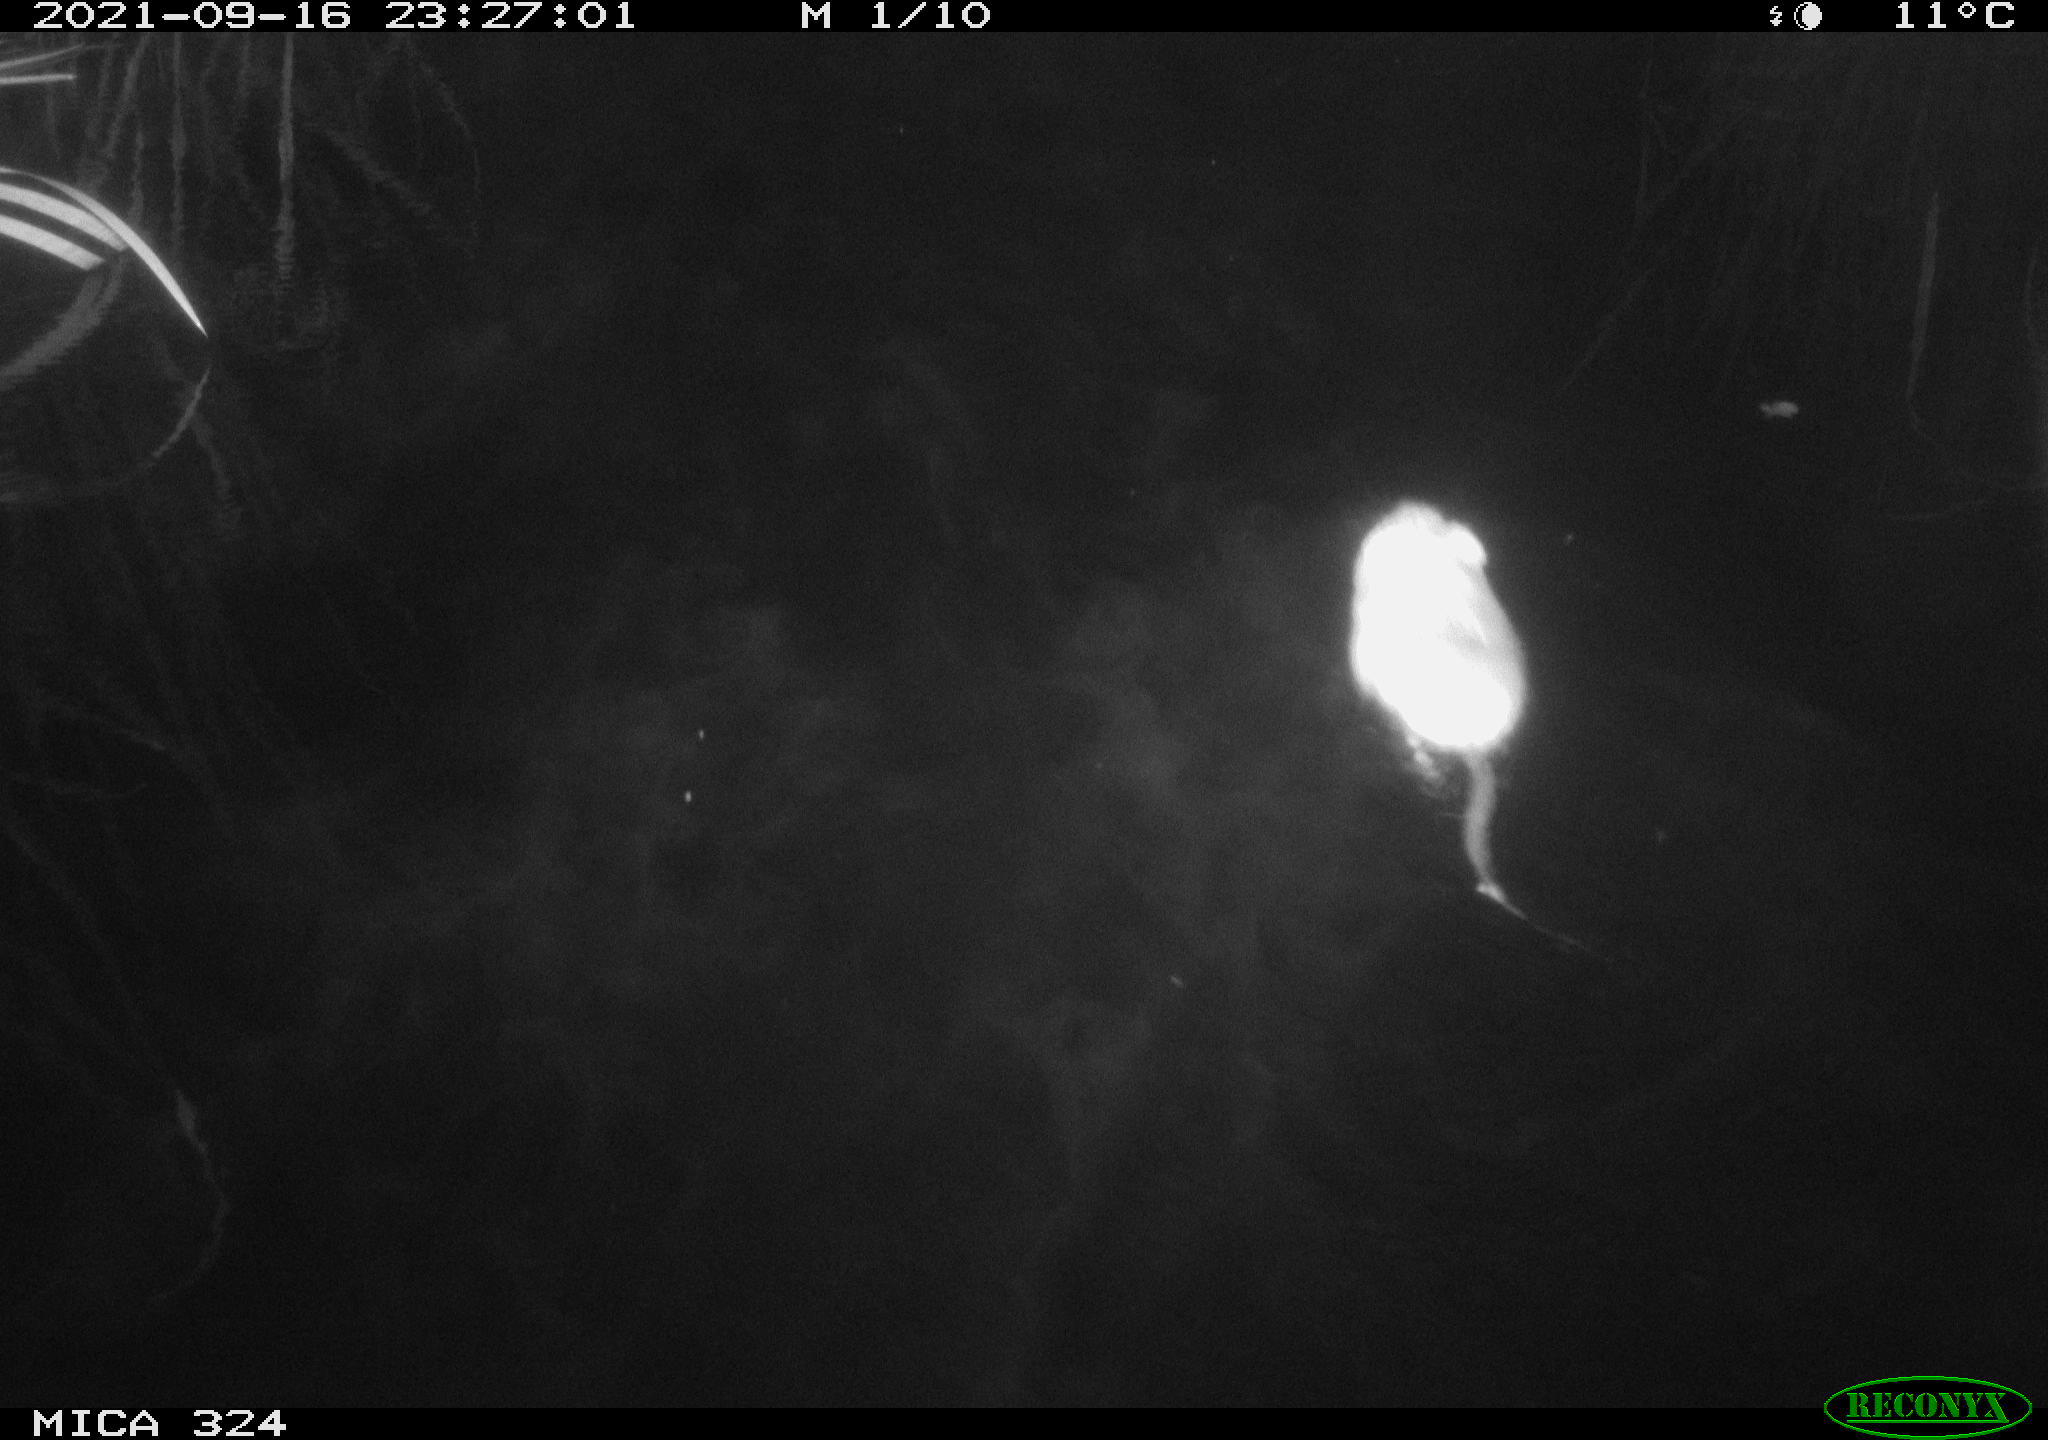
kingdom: Animalia
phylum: Chordata
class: Mammalia
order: Rodentia
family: Cricetidae
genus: Ondatra
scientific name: Ondatra zibethicus
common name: Muskrat
